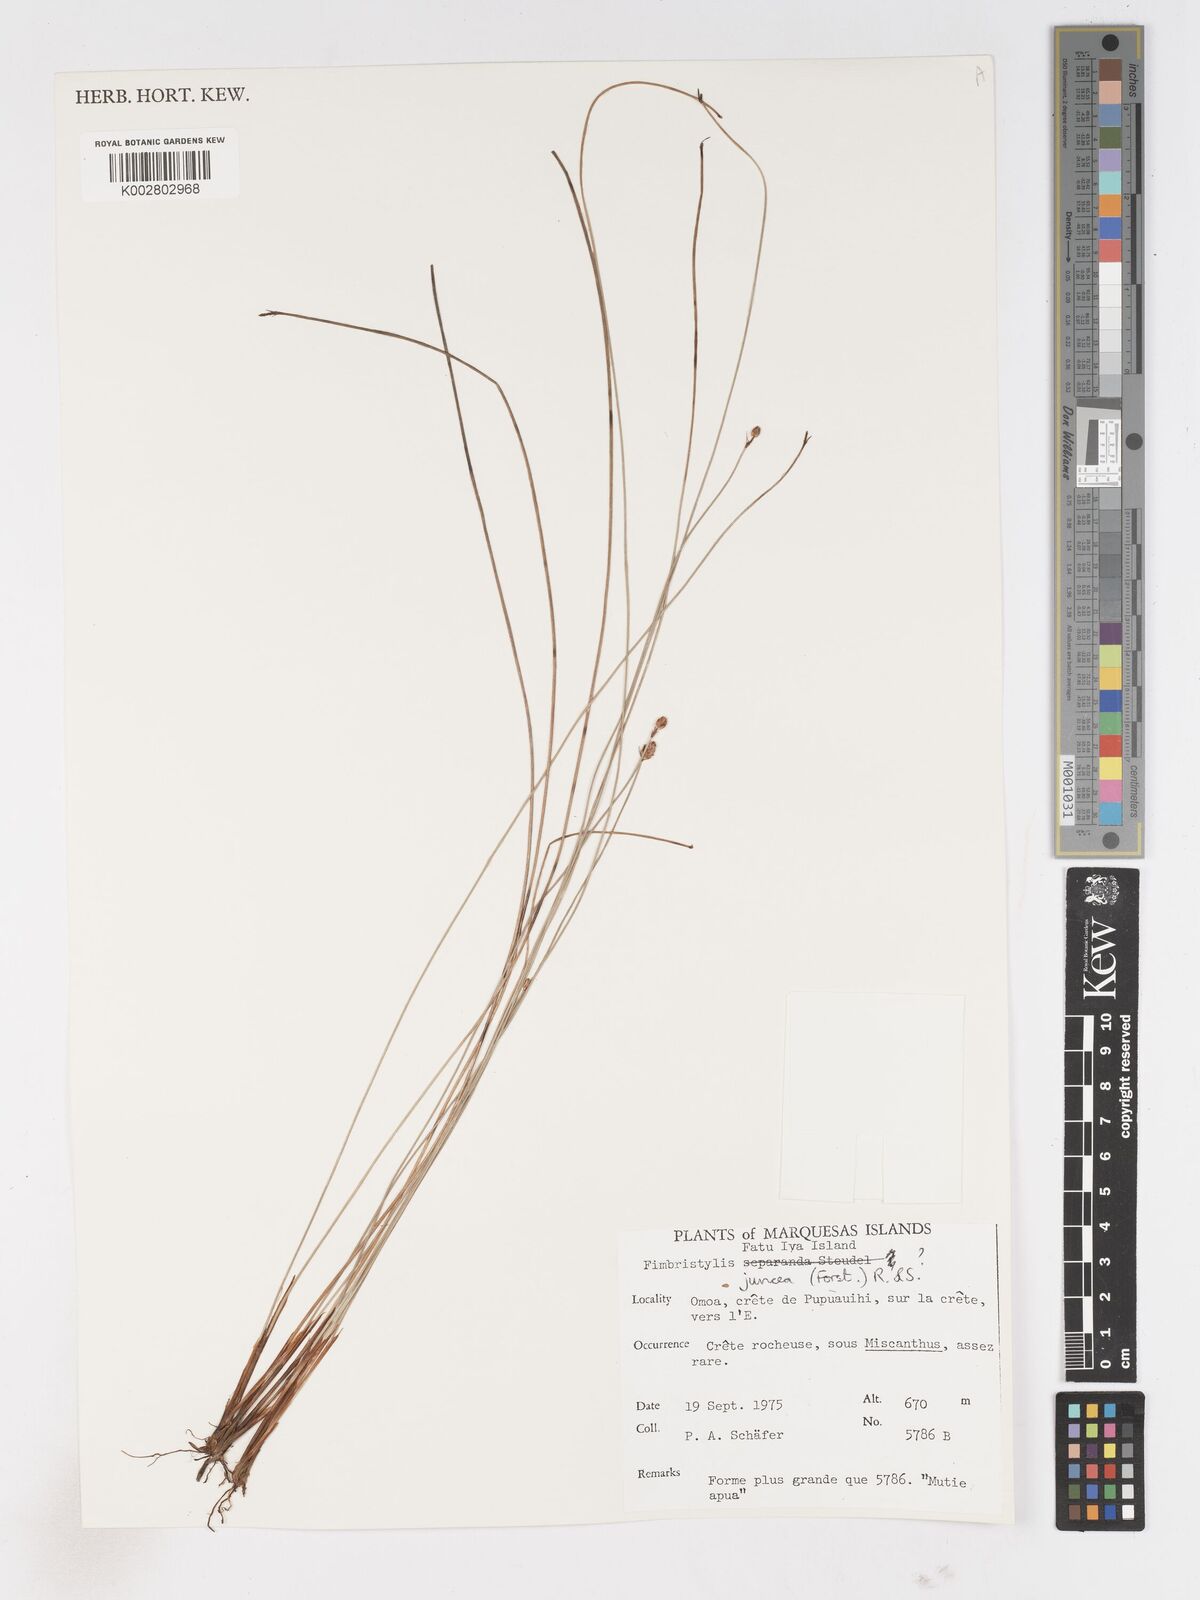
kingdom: Plantae
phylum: Tracheophyta
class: Liliopsida
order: Poales
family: Cyperaceae
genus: Fimbristylis
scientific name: Fimbristylis juncea
